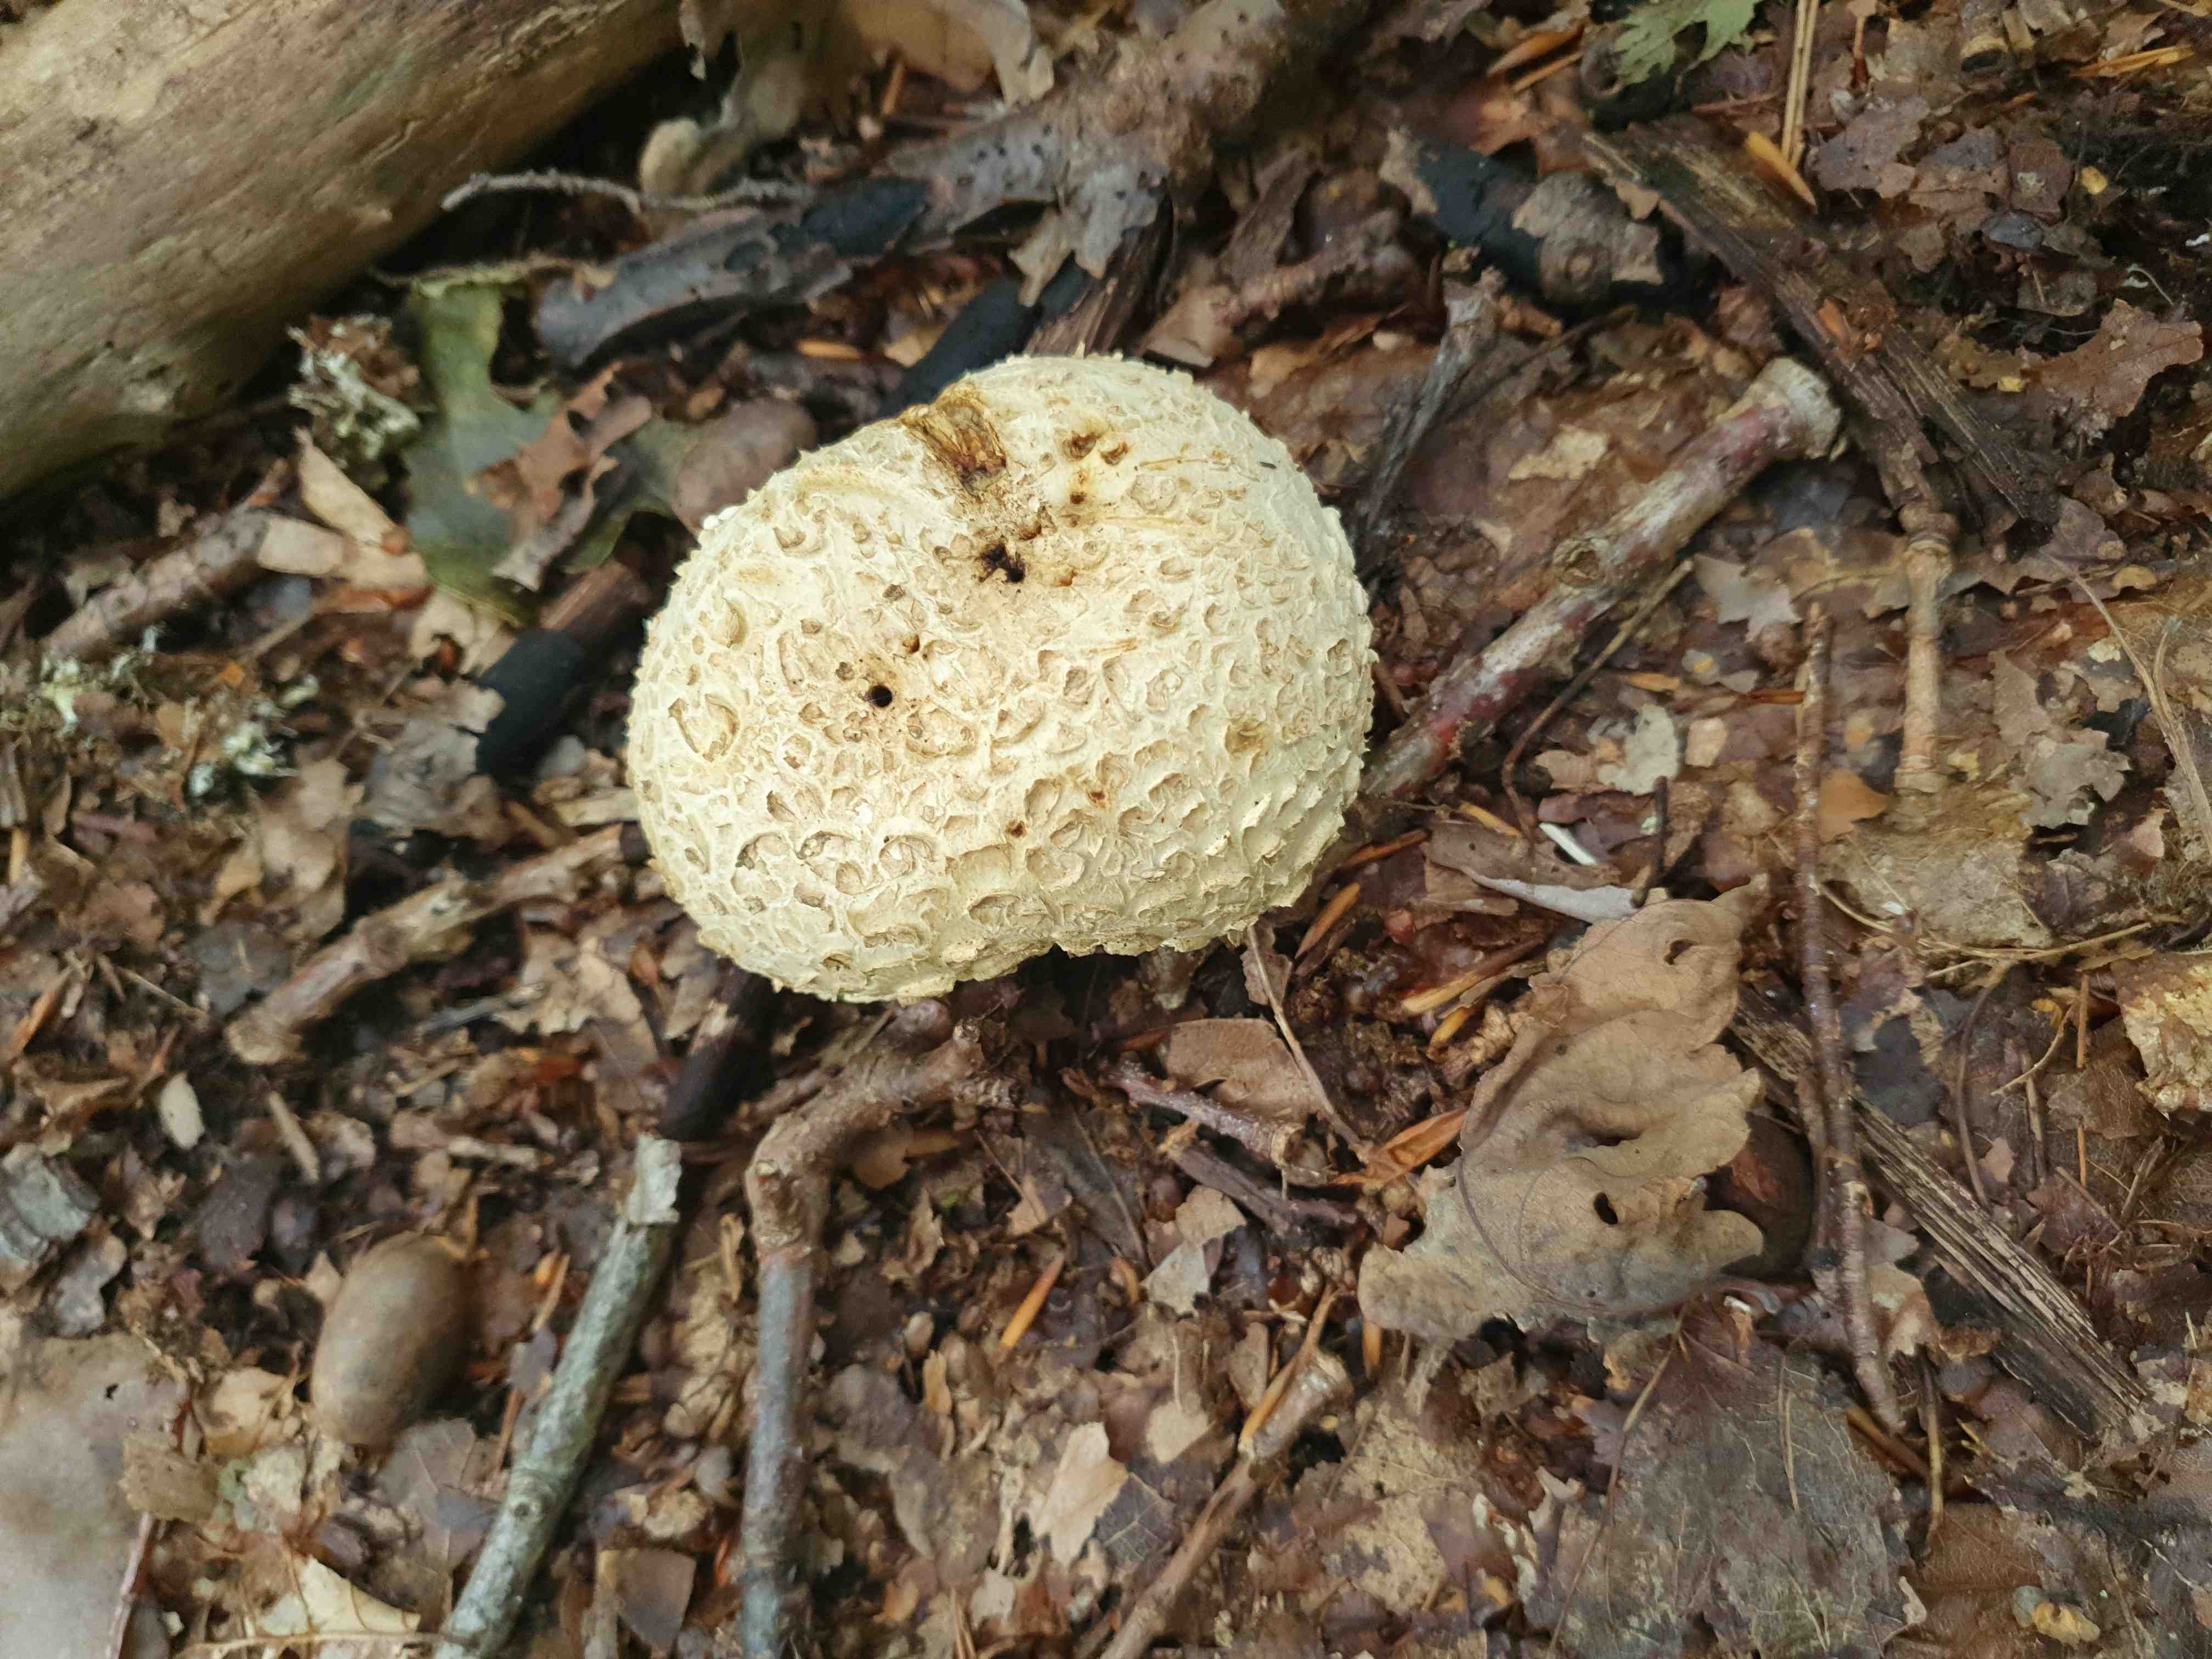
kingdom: Fungi
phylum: Basidiomycota
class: Agaricomycetes
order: Boletales
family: Sclerodermataceae
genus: Scleroderma
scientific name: Scleroderma citrinum
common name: almindelig bruskbold
